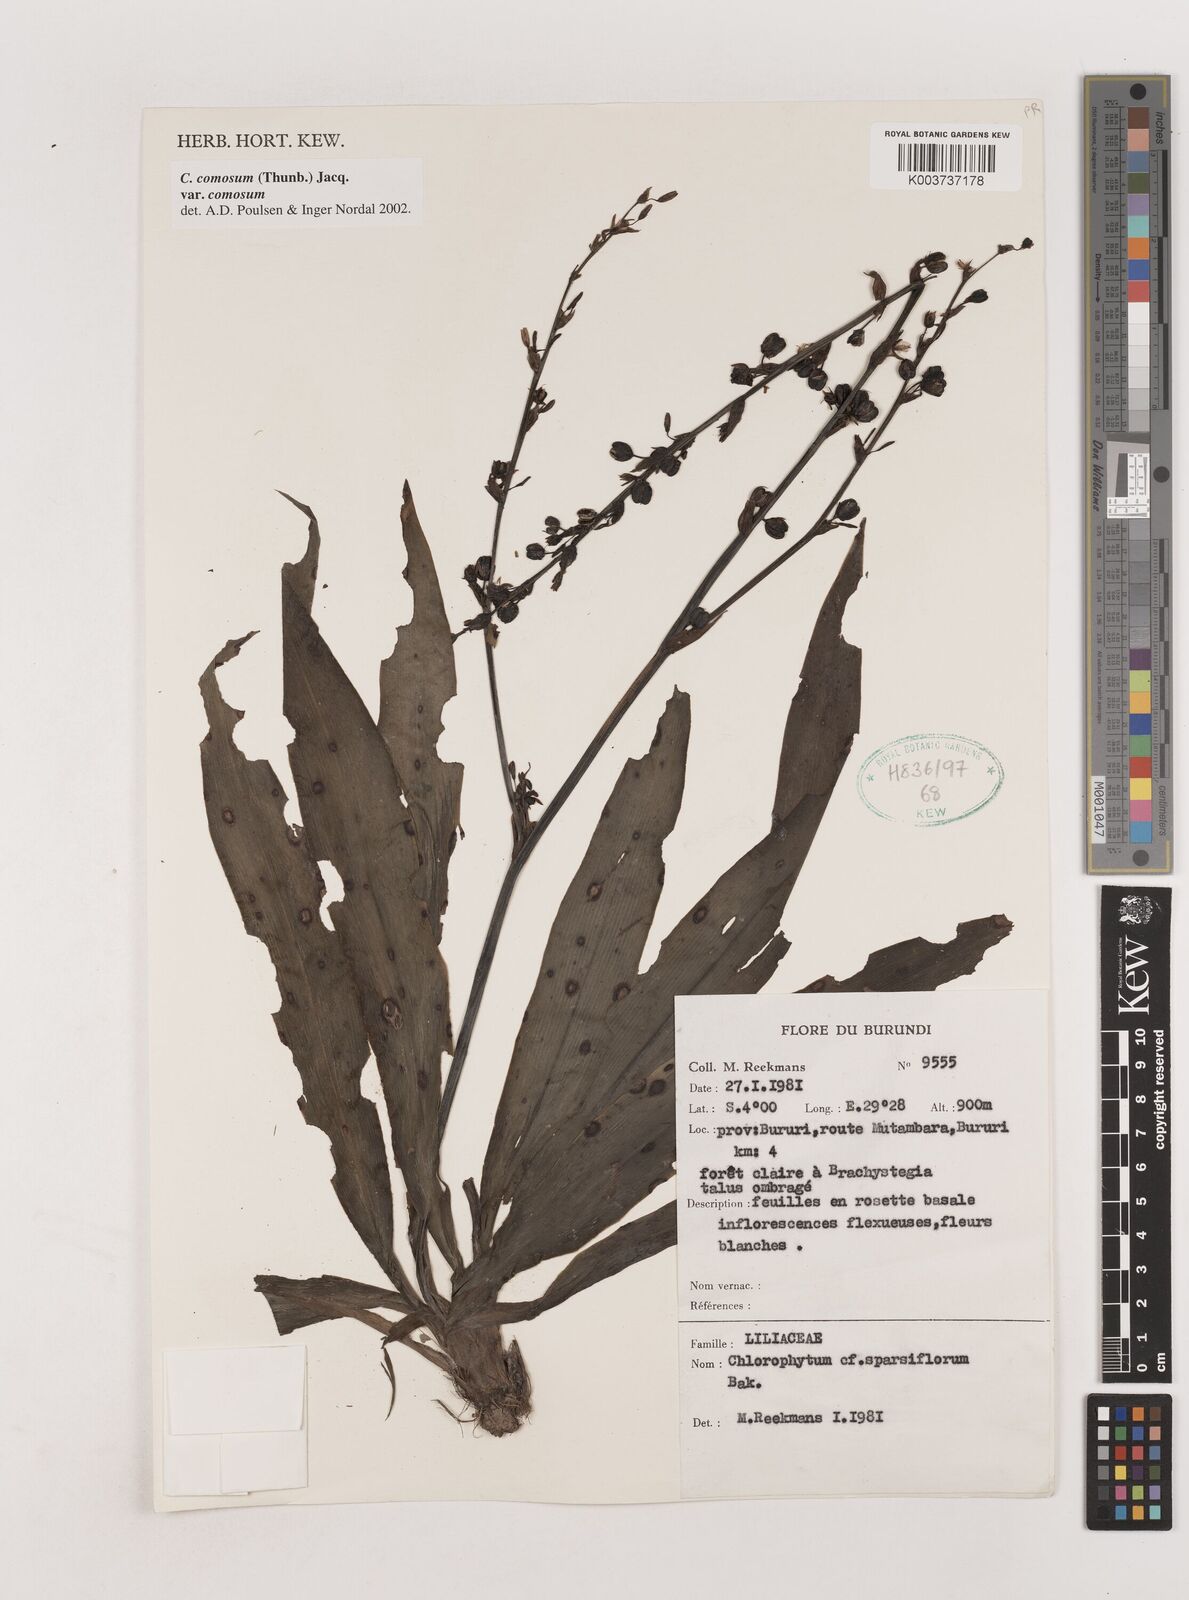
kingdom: Plantae
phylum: Tracheophyta
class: Liliopsida
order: Asparagales
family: Asparagaceae
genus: Chlorophytum
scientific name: Chlorophytum comosum
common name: Spider plant
